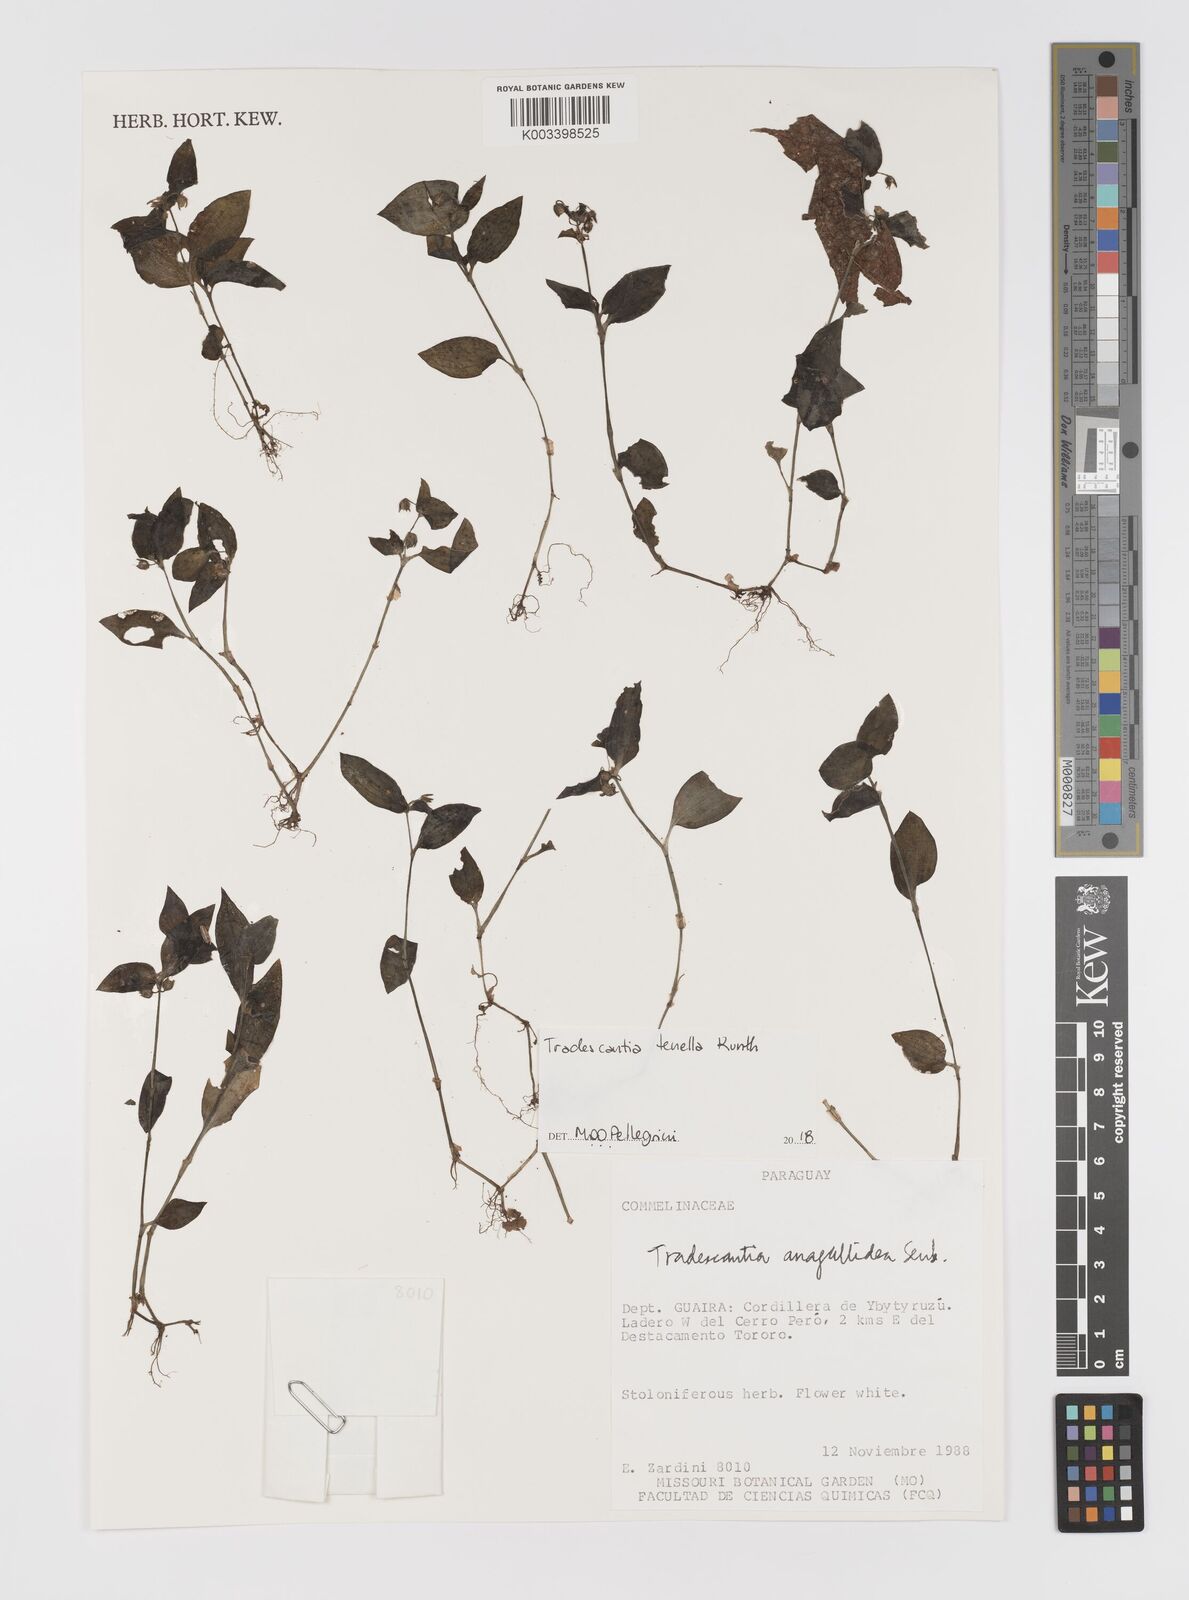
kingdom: Plantae
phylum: Tracheophyta
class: Liliopsida
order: Commelinales
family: Commelinaceae
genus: Tradescantia
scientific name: Tradescantia tenella
